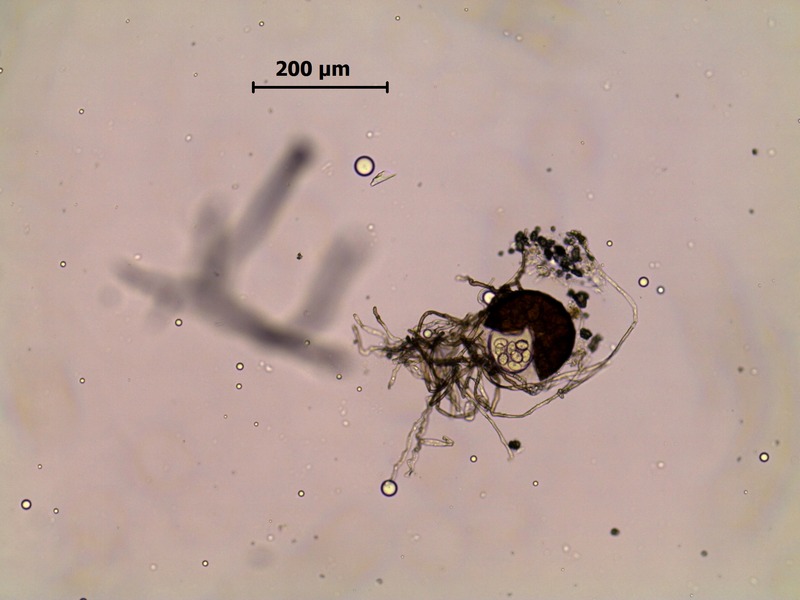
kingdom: Fungi
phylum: Ascomycota
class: Leotiomycetes
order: Helotiales
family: Erysiphaceae
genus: Podosphaera
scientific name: Podosphaera balsaminae
